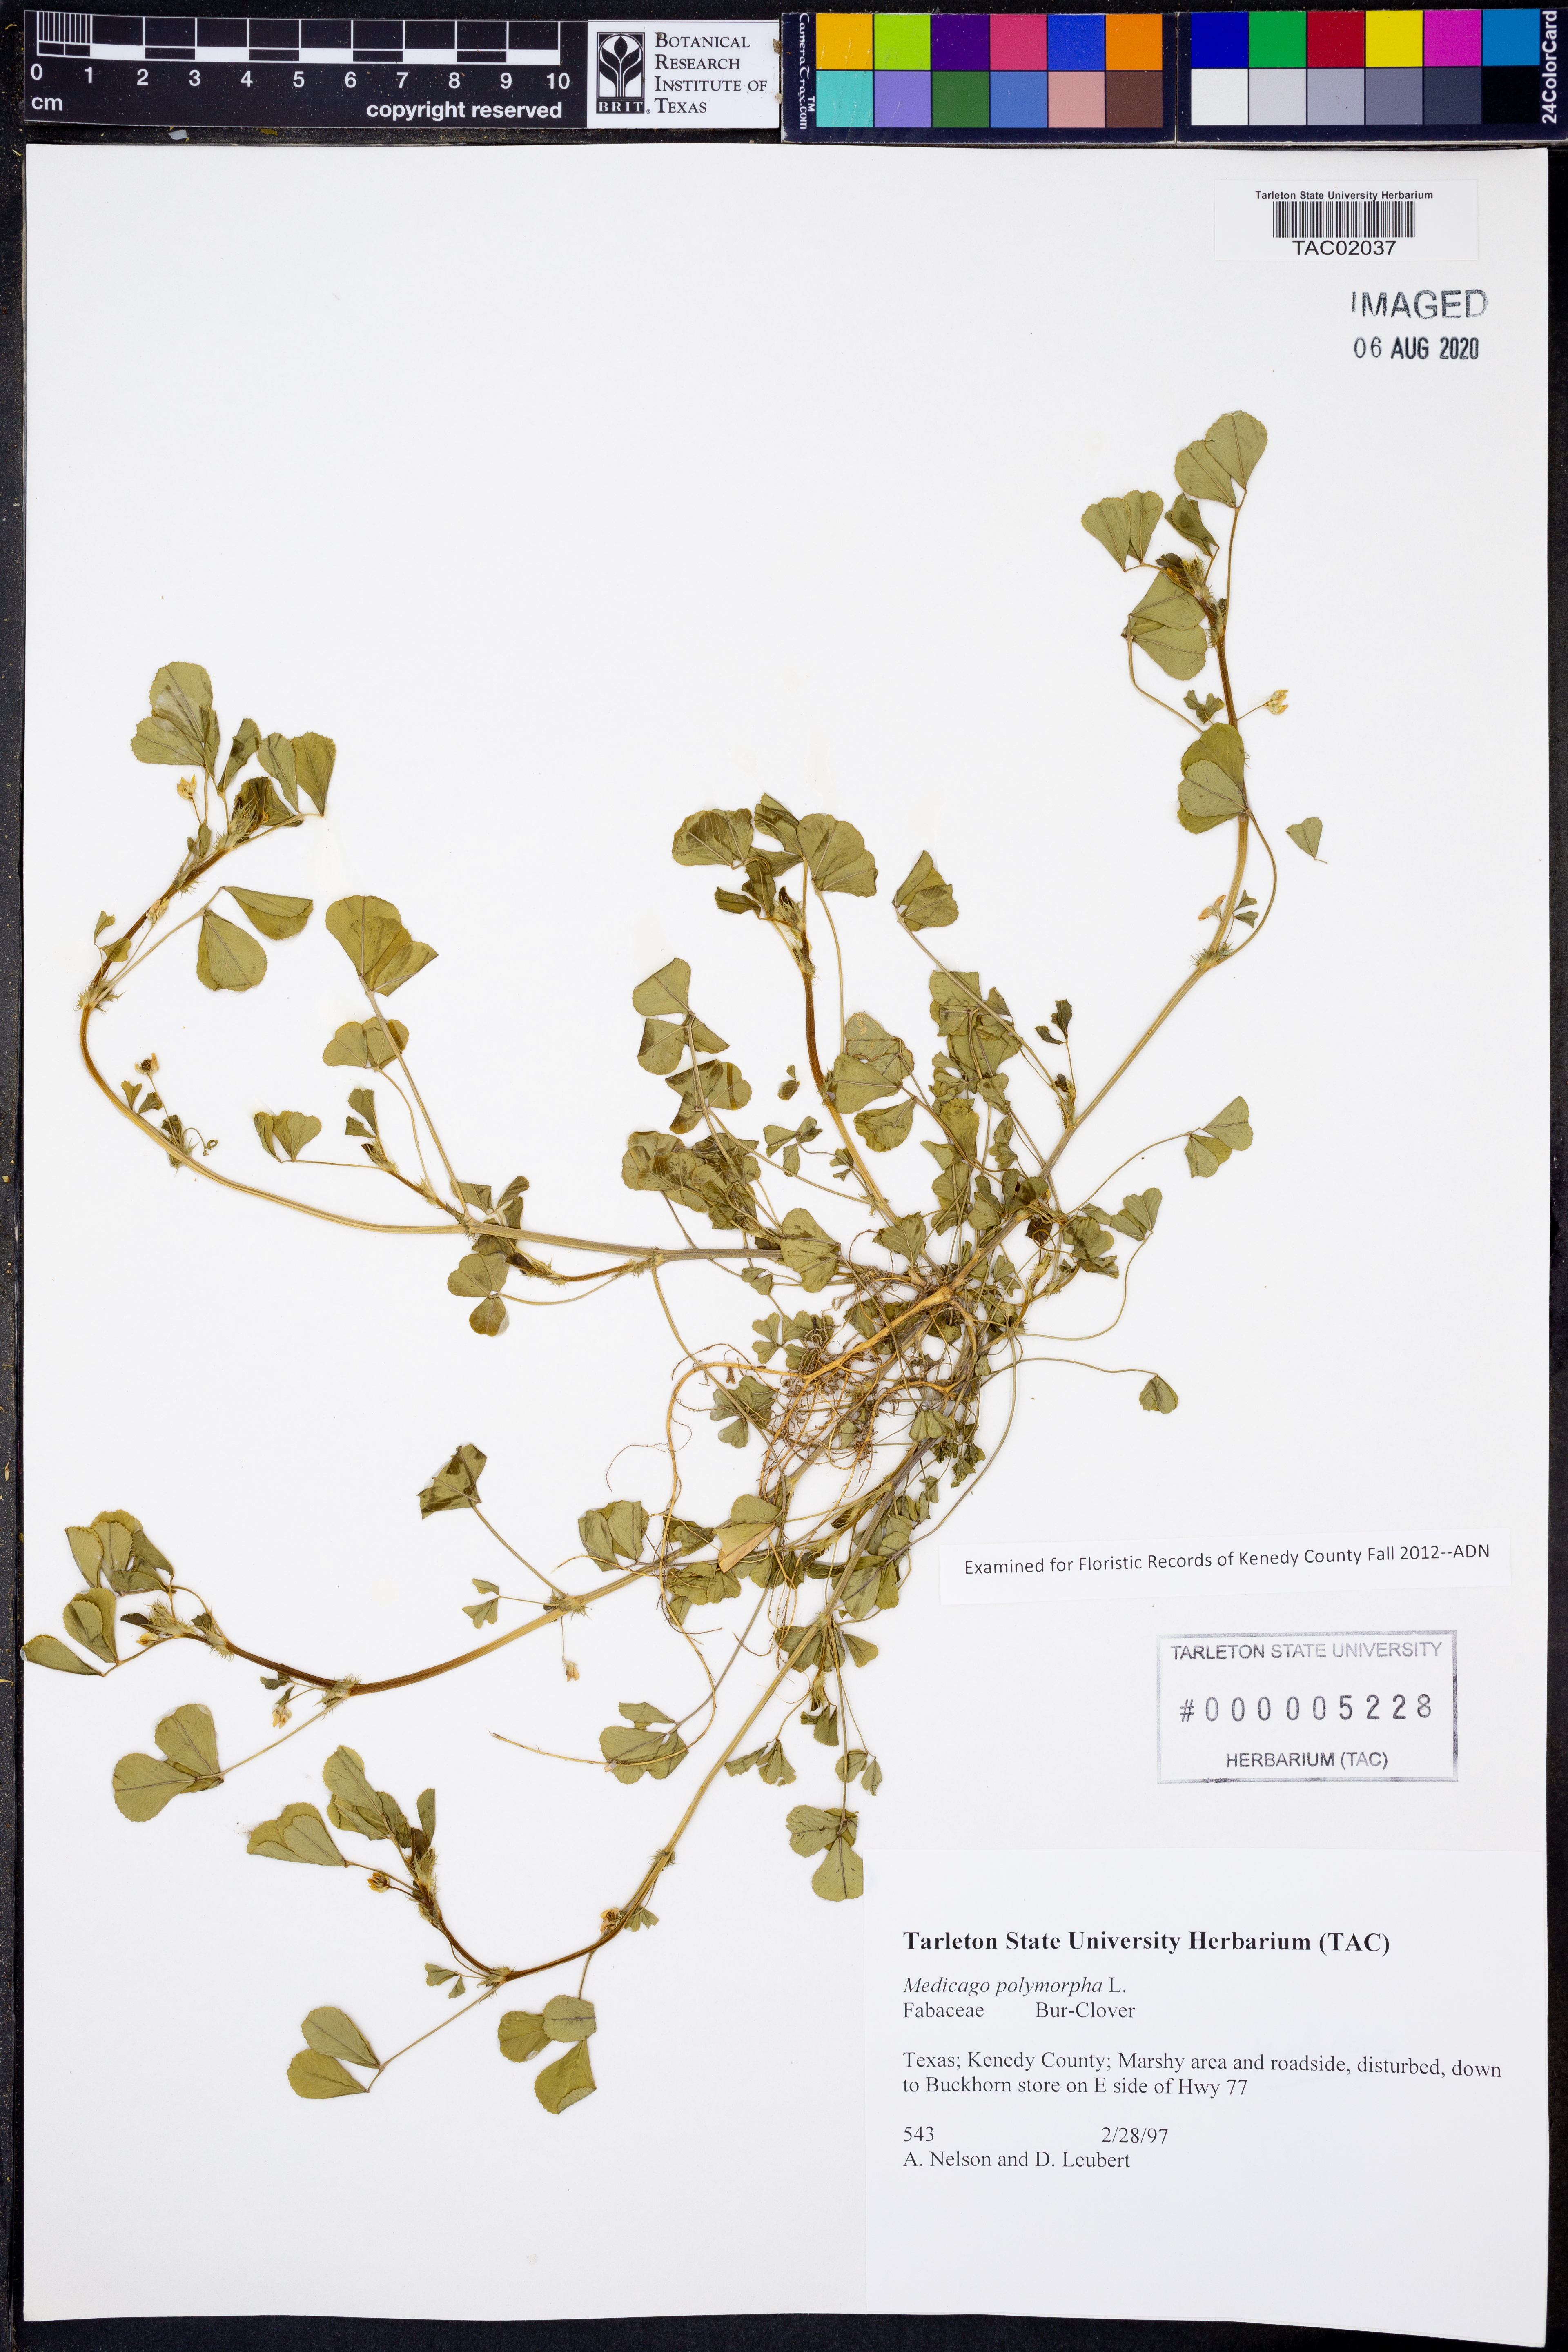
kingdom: Plantae
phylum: Tracheophyta
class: Magnoliopsida
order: Fabales
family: Fabaceae
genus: Medicago
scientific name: Medicago polymorpha
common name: Burclover
